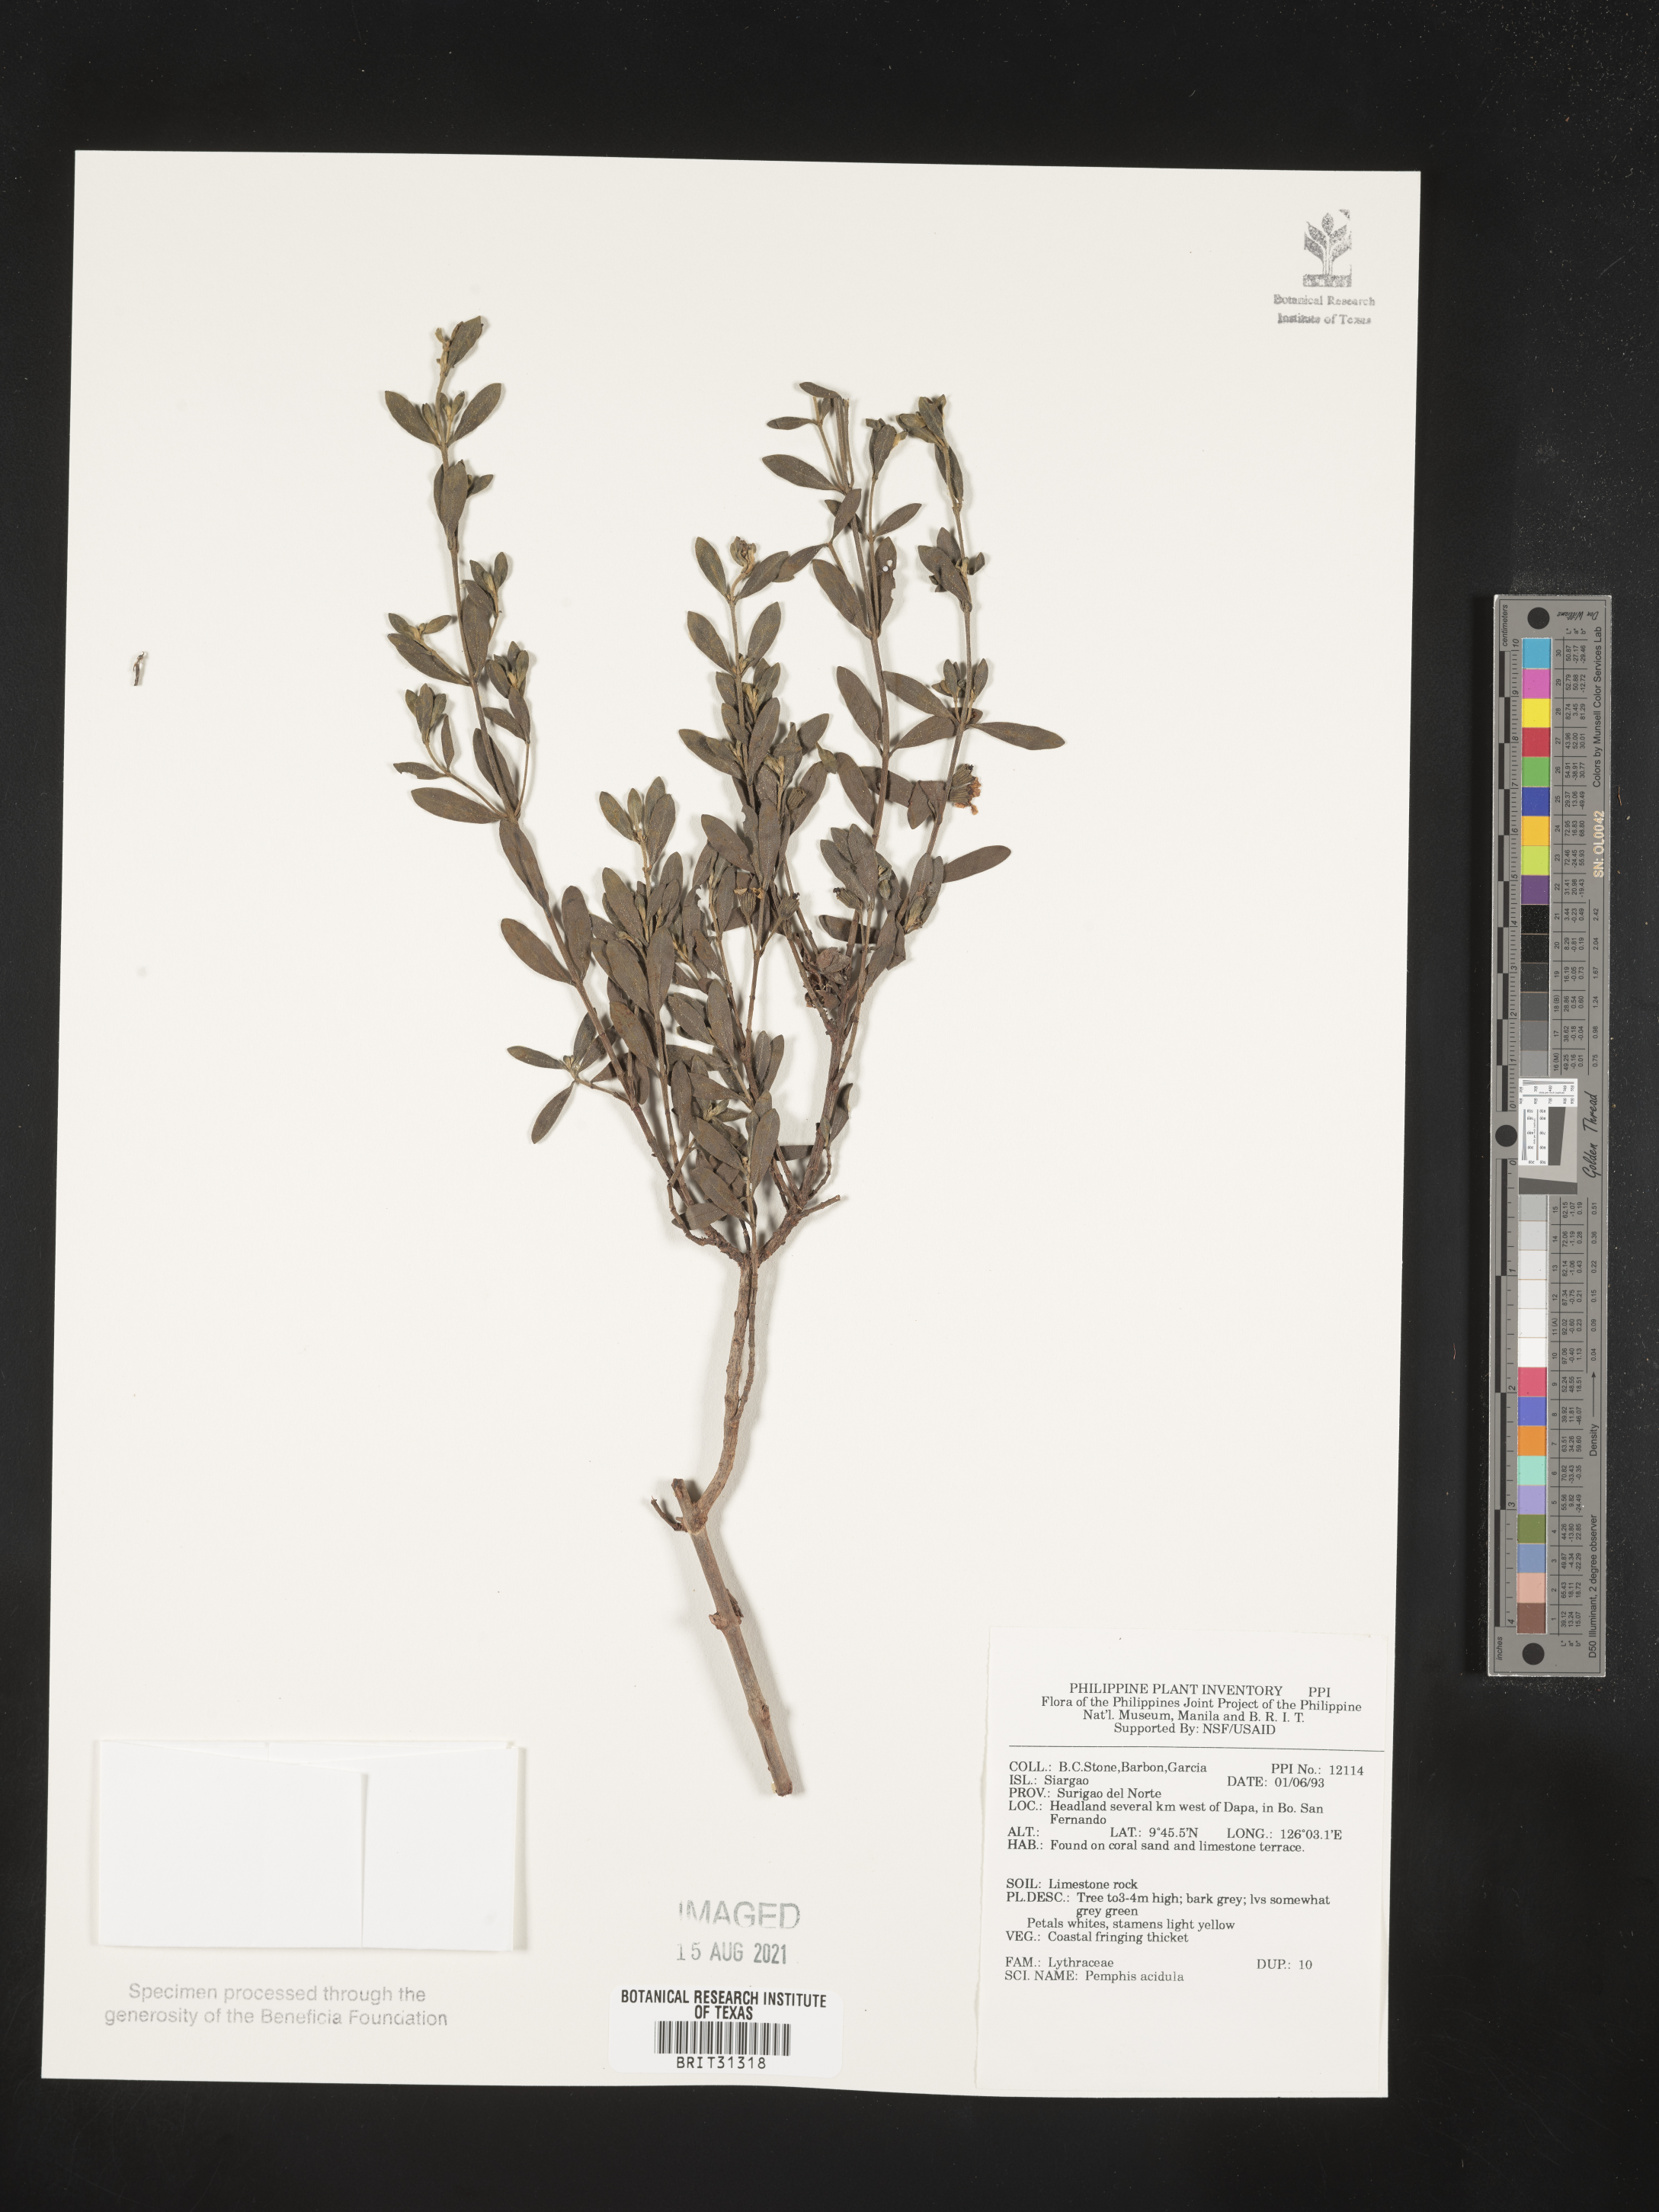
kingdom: Plantae
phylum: Tracheophyta
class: Magnoliopsida
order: Myrtales
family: Lythraceae
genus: Pemphis
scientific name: Pemphis acidula
